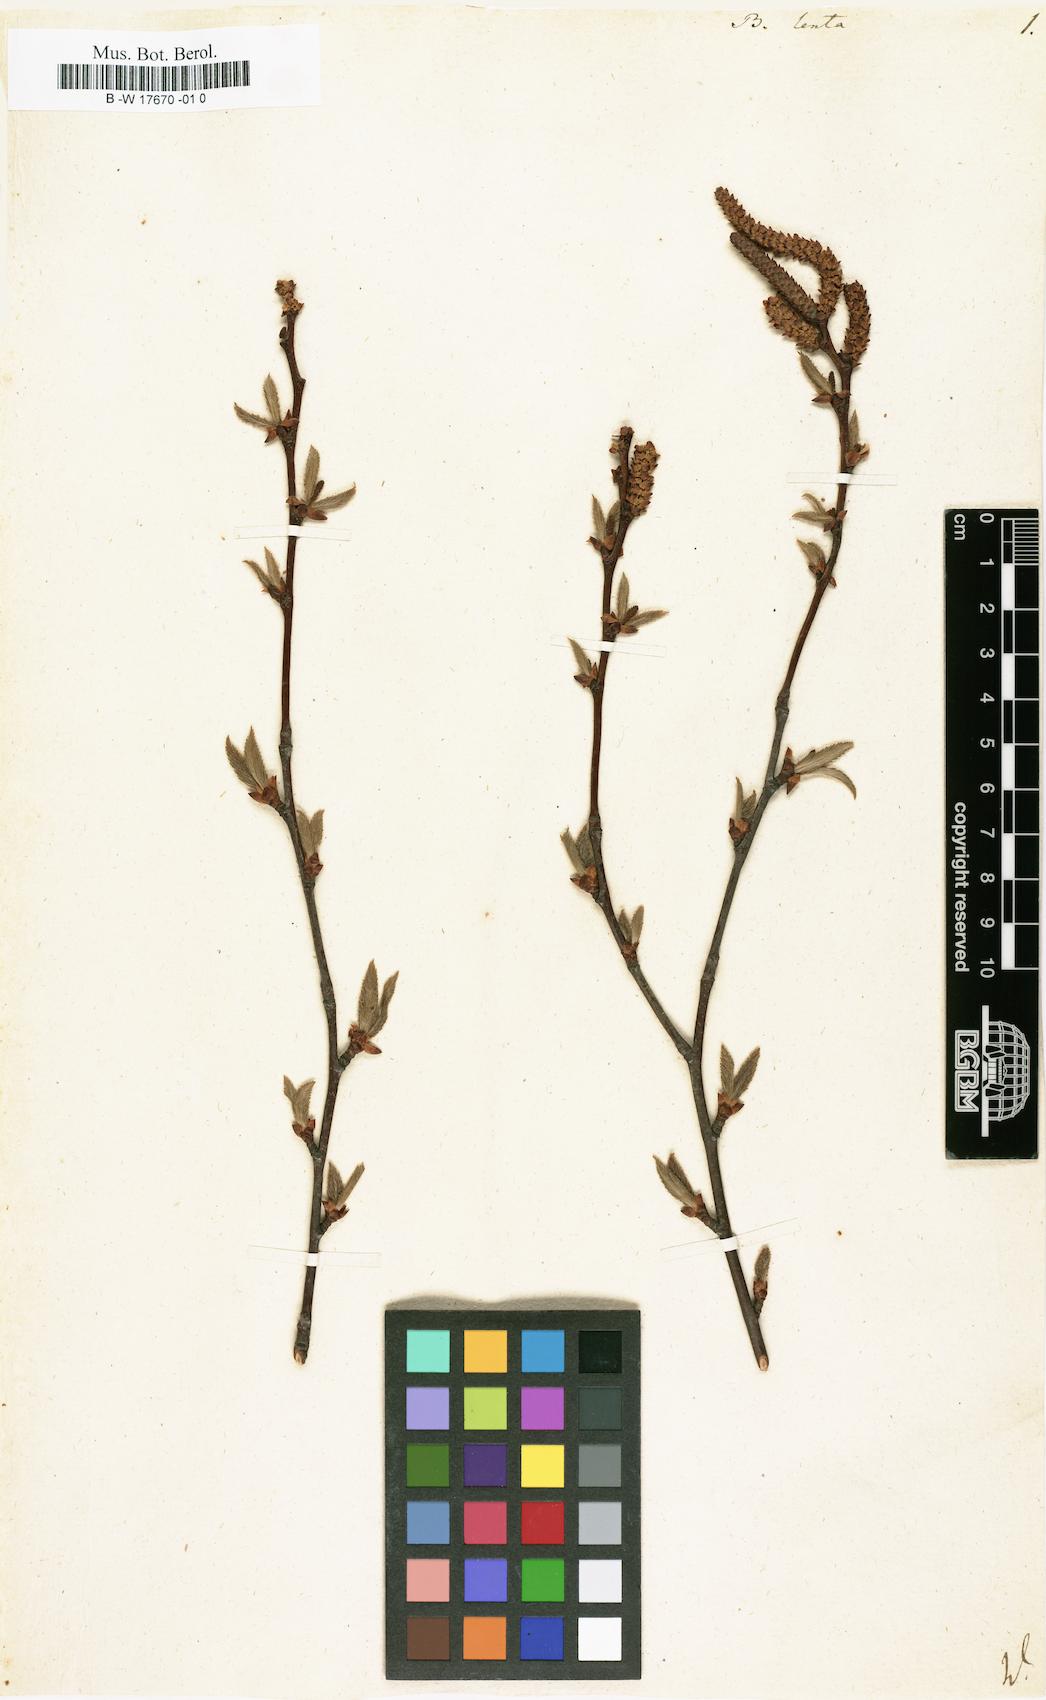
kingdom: Plantae
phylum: Tracheophyta
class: Magnoliopsida
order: Fagales
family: Betulaceae
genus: Betula
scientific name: Betula lenta
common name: Black birch
